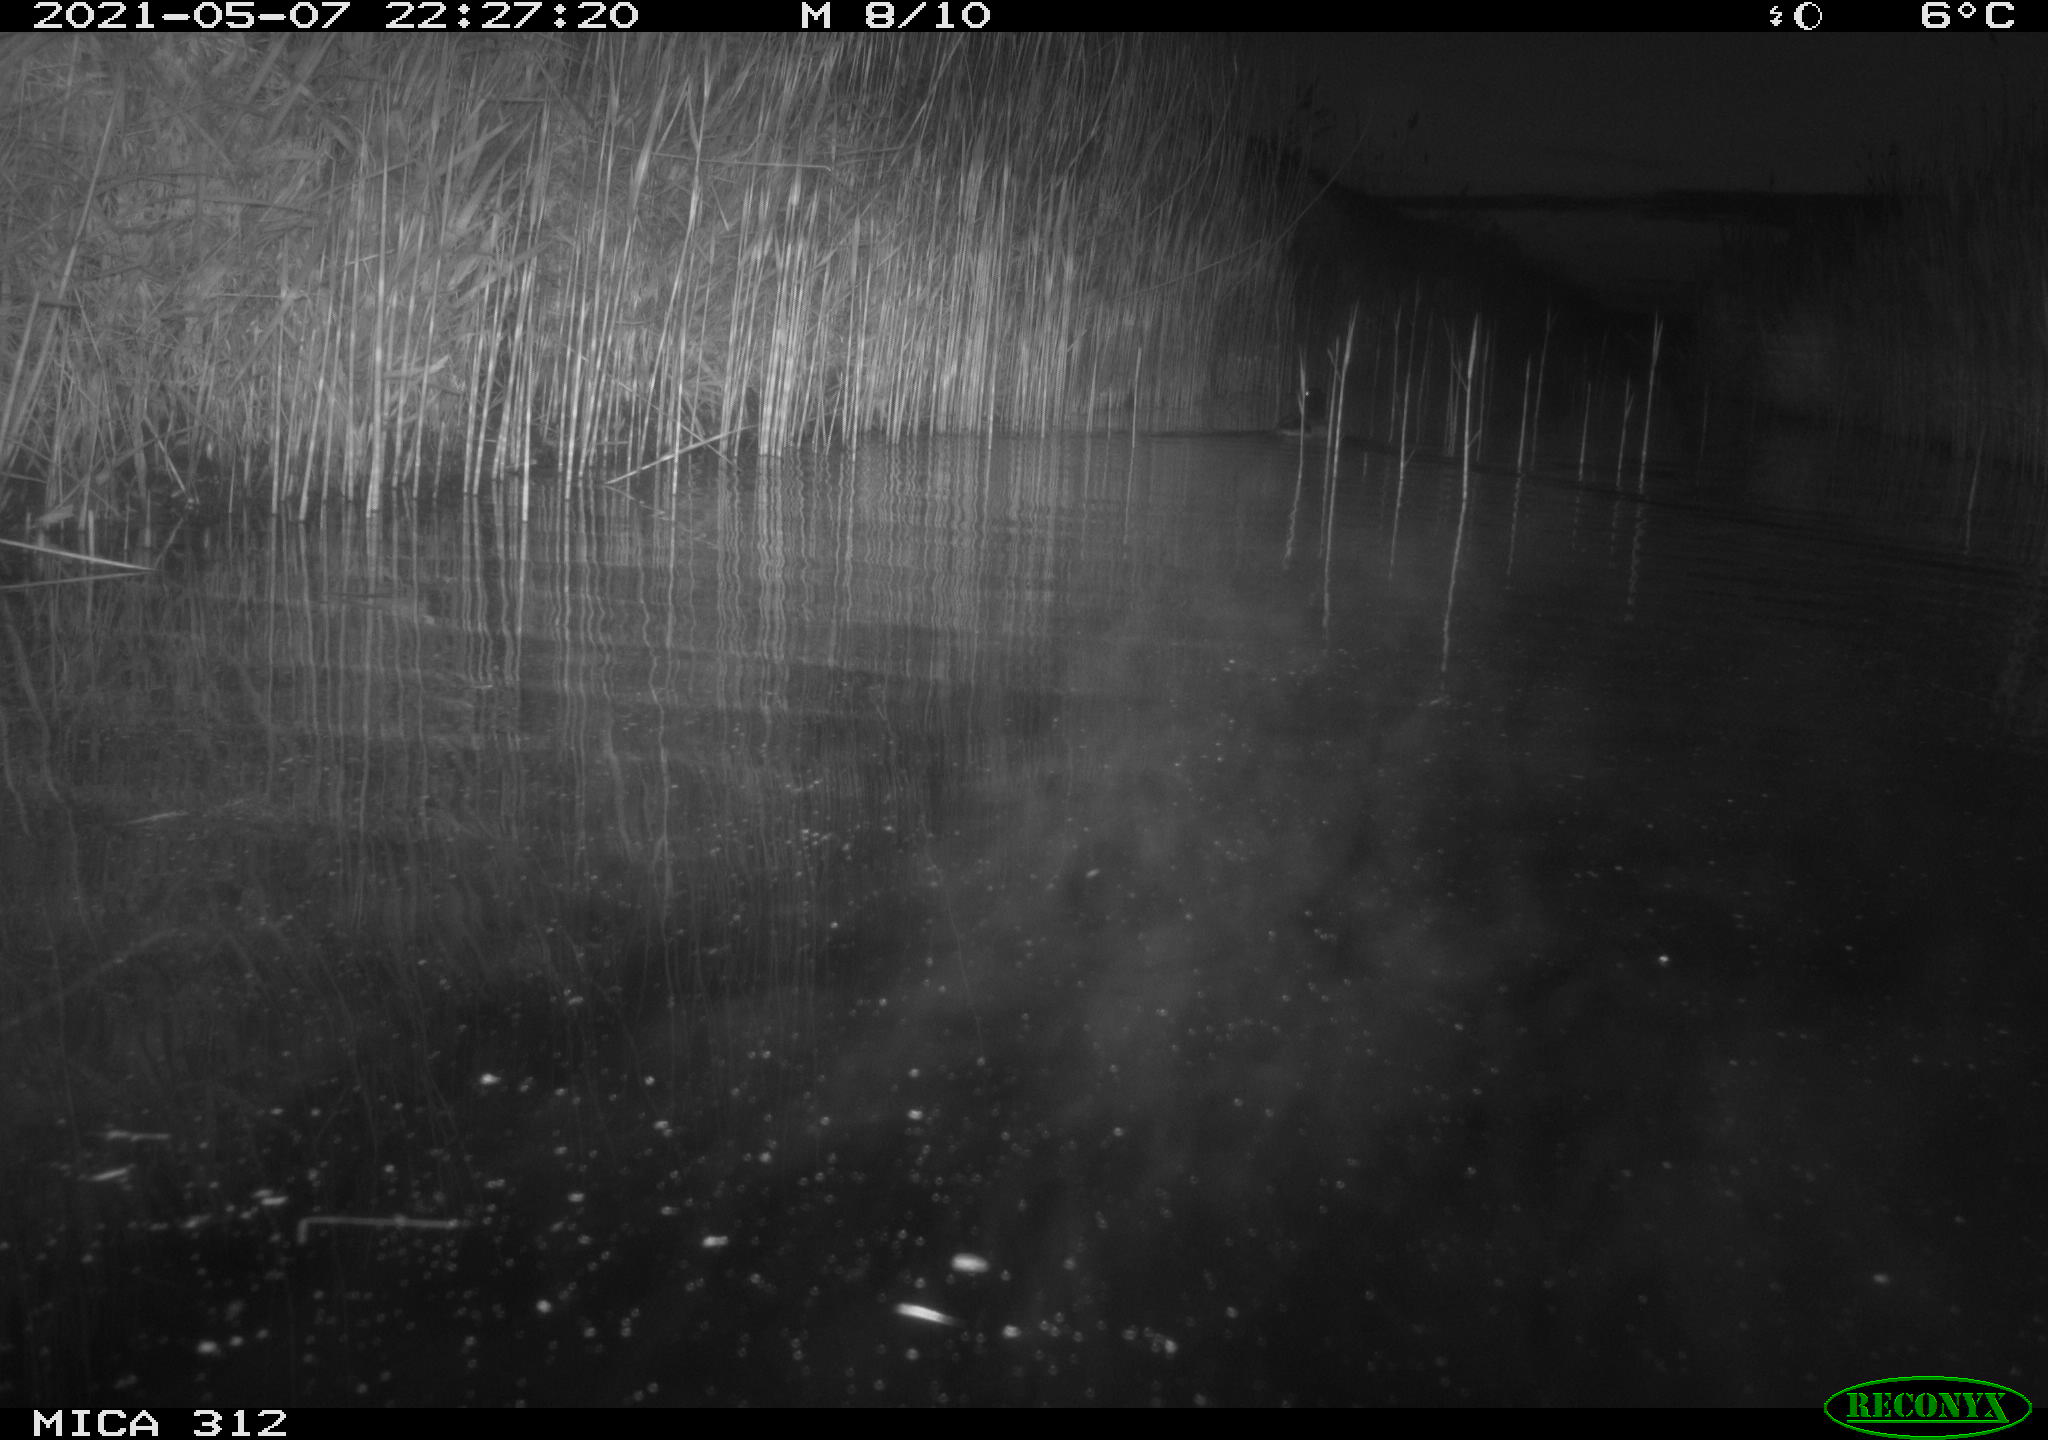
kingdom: Animalia
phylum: Chordata
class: Aves
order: Anseriformes
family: Anatidae
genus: Anas
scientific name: Anas platyrhynchos
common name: Mallard
